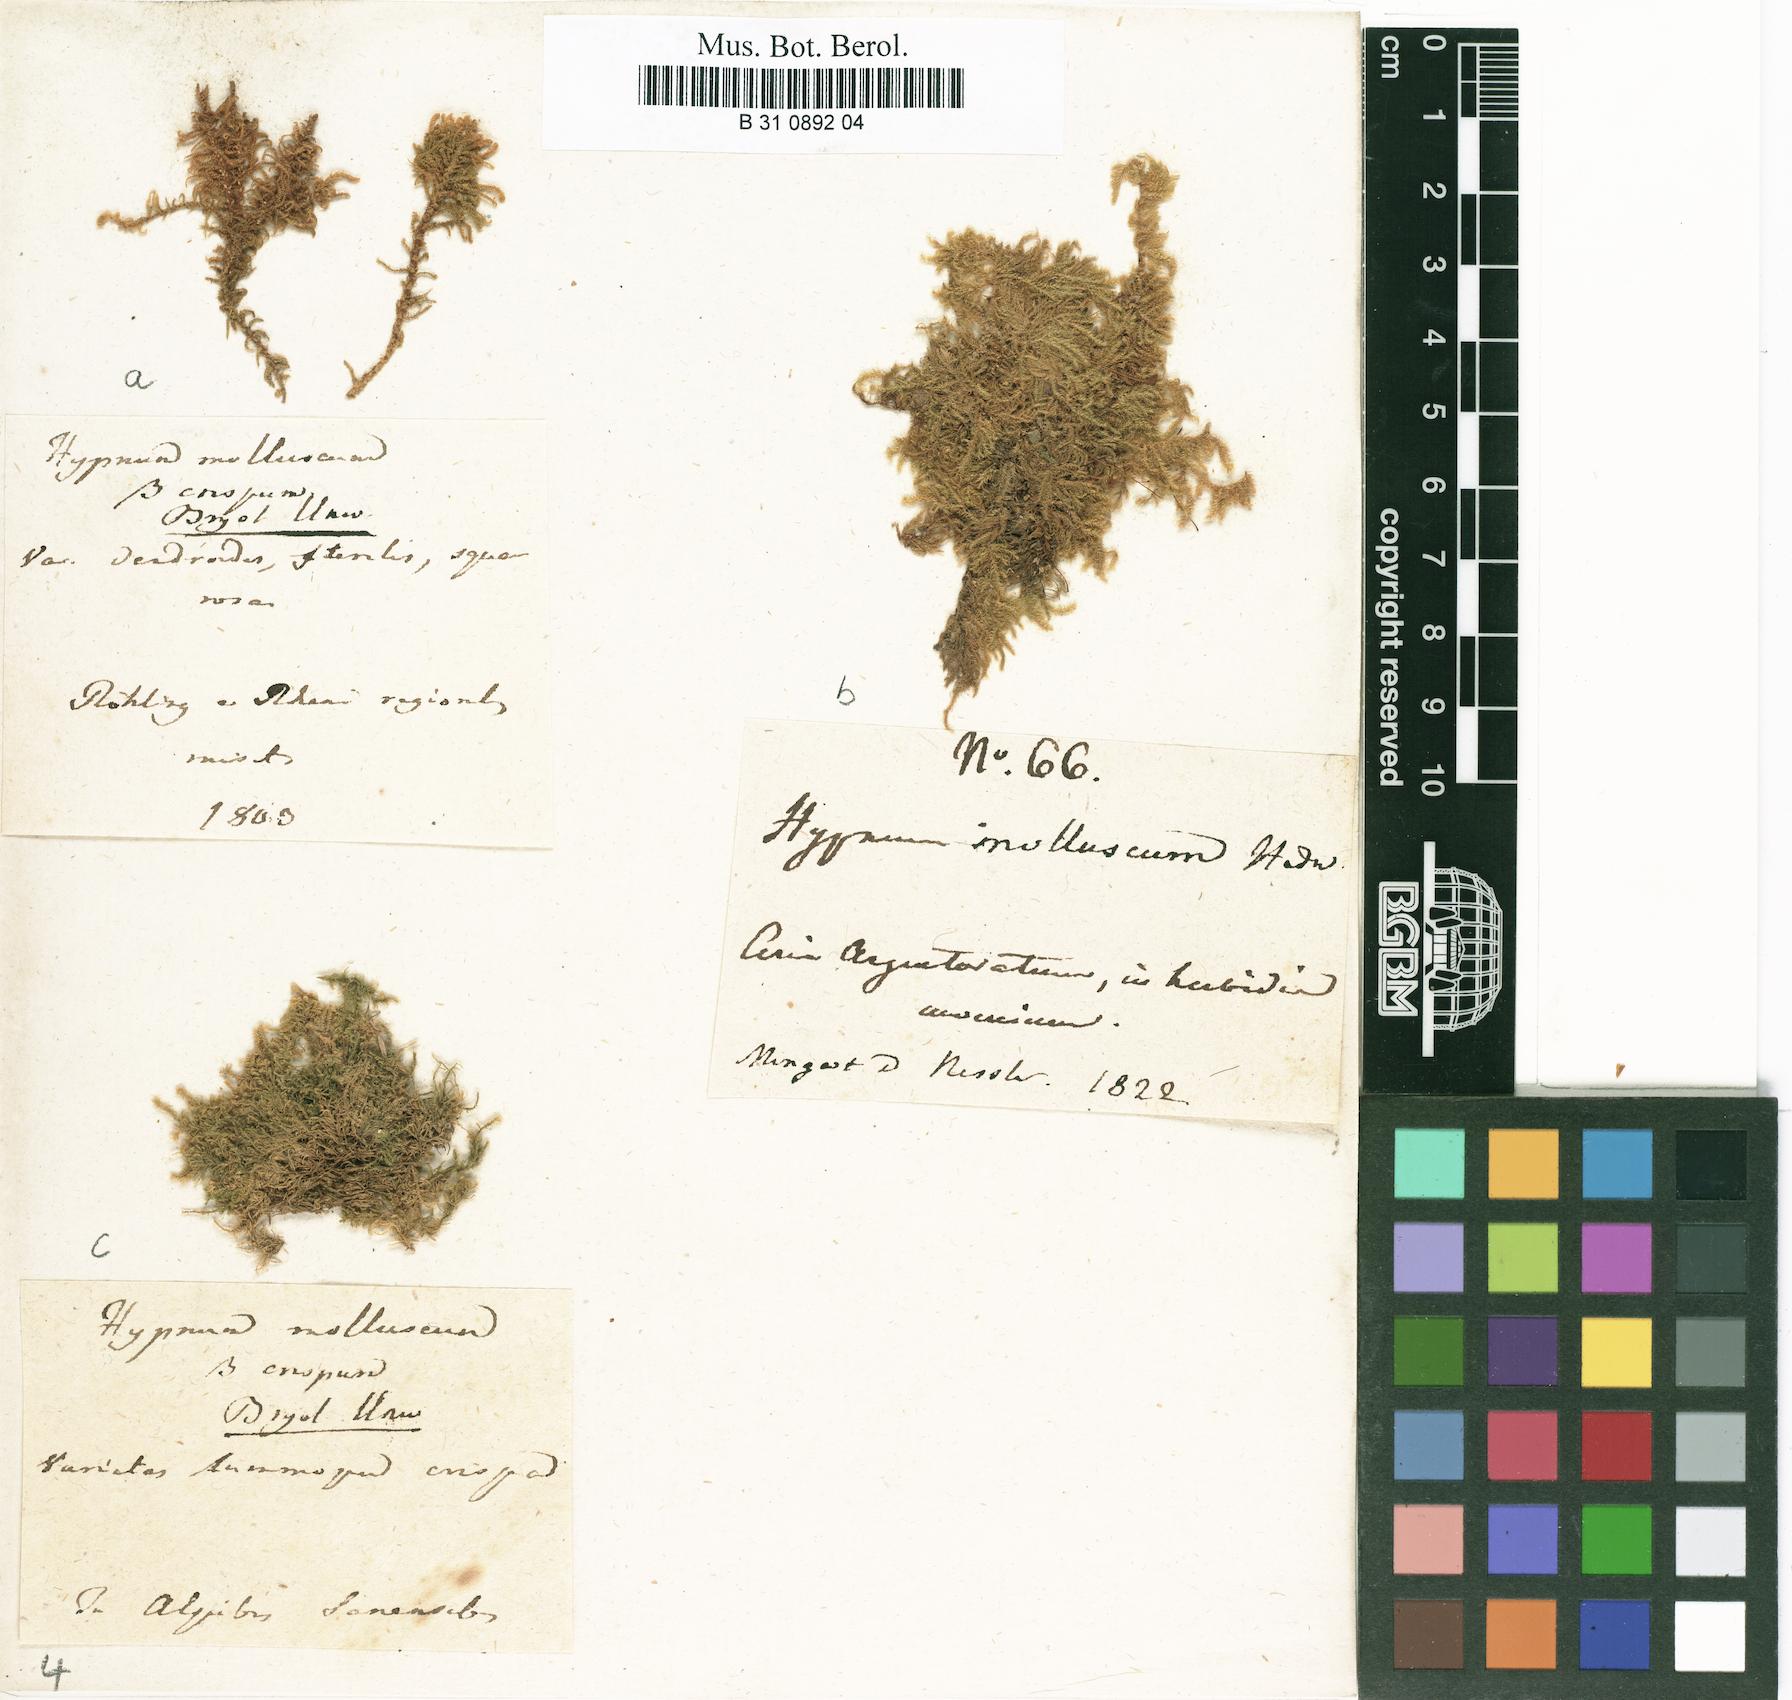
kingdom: Plantae
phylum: Bryophyta
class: Bryopsida
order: Hypnales
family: Myuriaceae
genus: Ctenidium
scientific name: Ctenidium molluscum
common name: Chalk comb-moss
